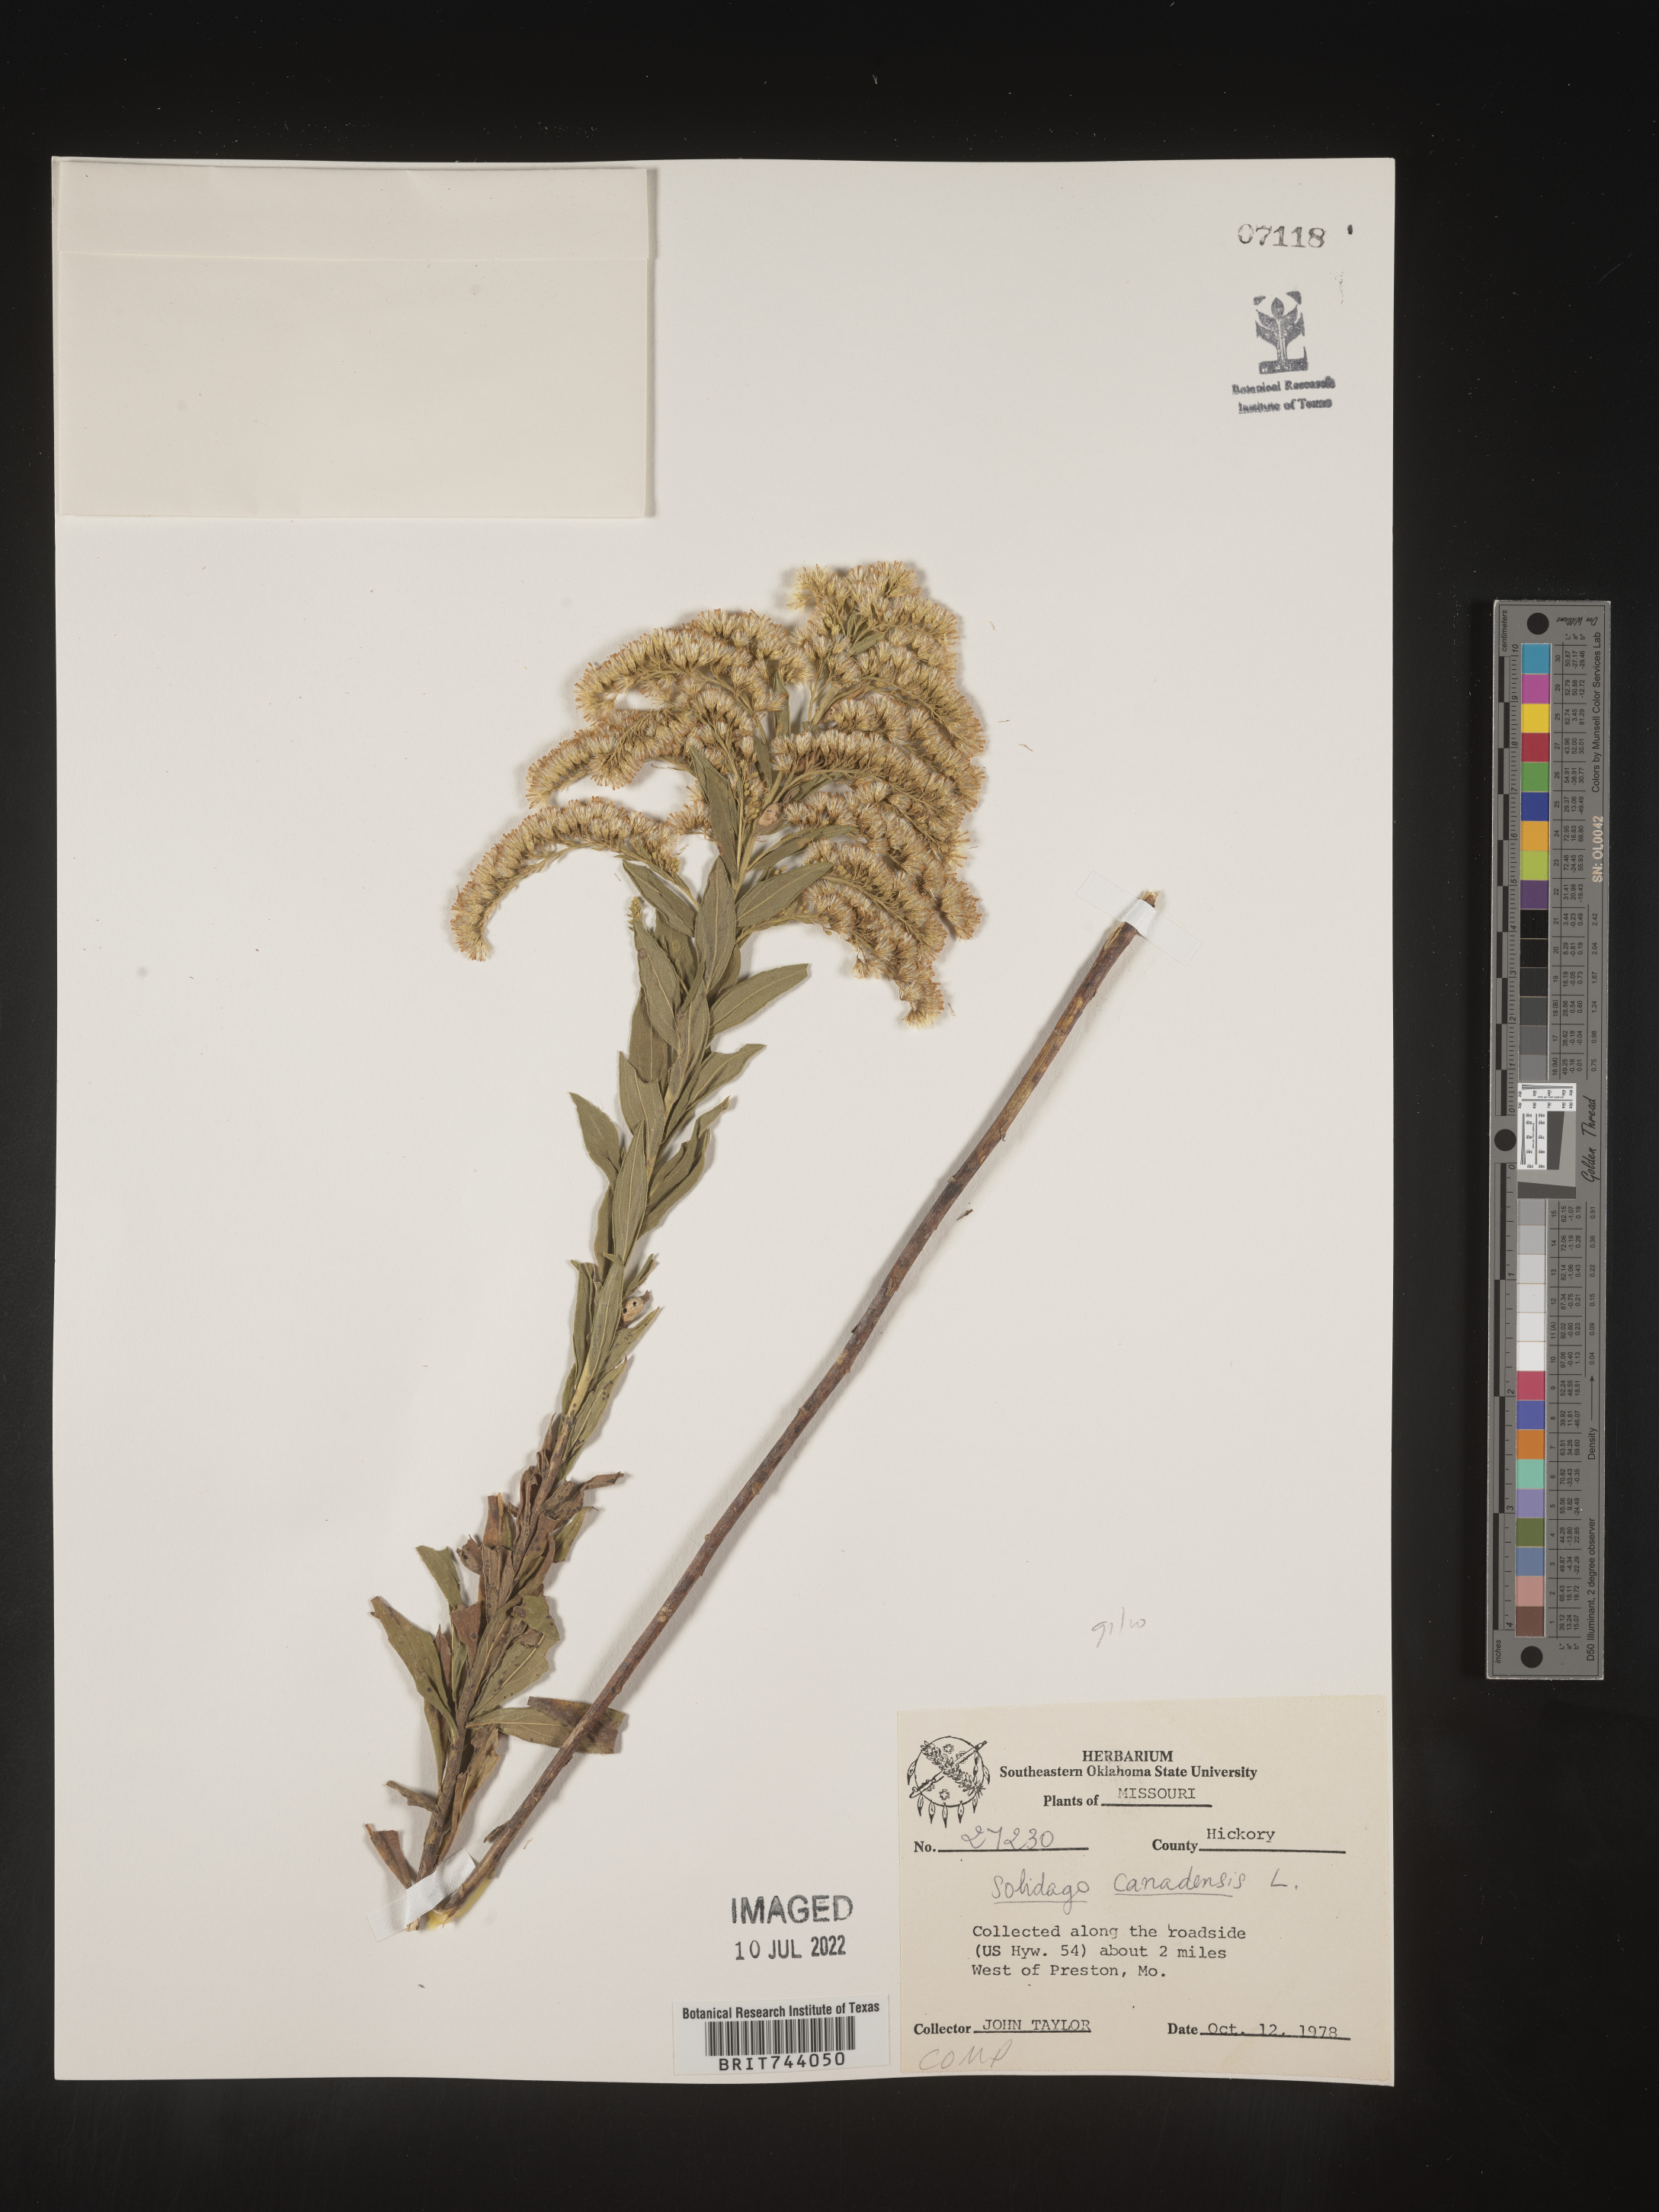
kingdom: Plantae
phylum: Tracheophyta
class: Magnoliopsida
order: Asterales
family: Asteraceae
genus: Solidago
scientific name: Solidago altissima
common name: Late goldenrod
